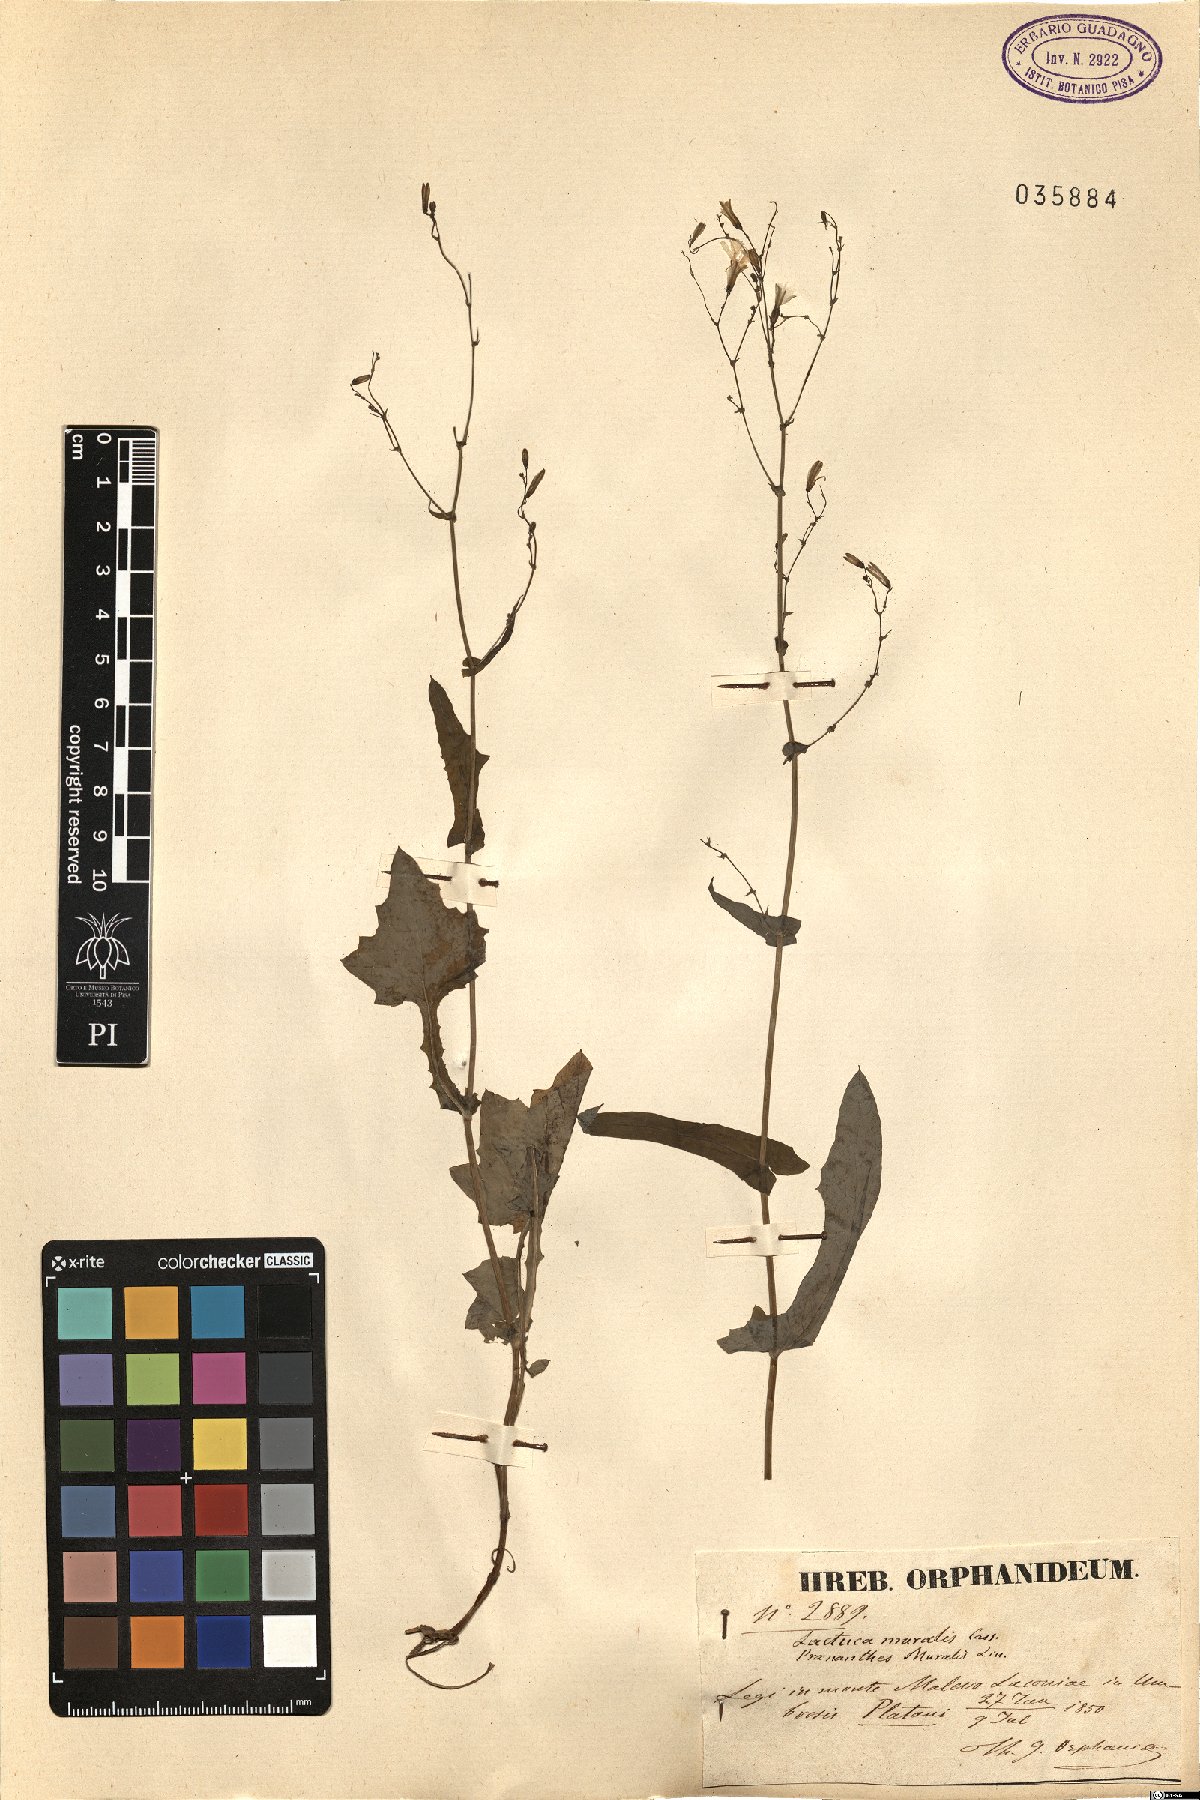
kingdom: Plantae
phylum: Tracheophyta
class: Magnoliopsida
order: Asterales
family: Asteraceae
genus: Mycelis
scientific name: Mycelis muralis
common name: Wall lettuce
